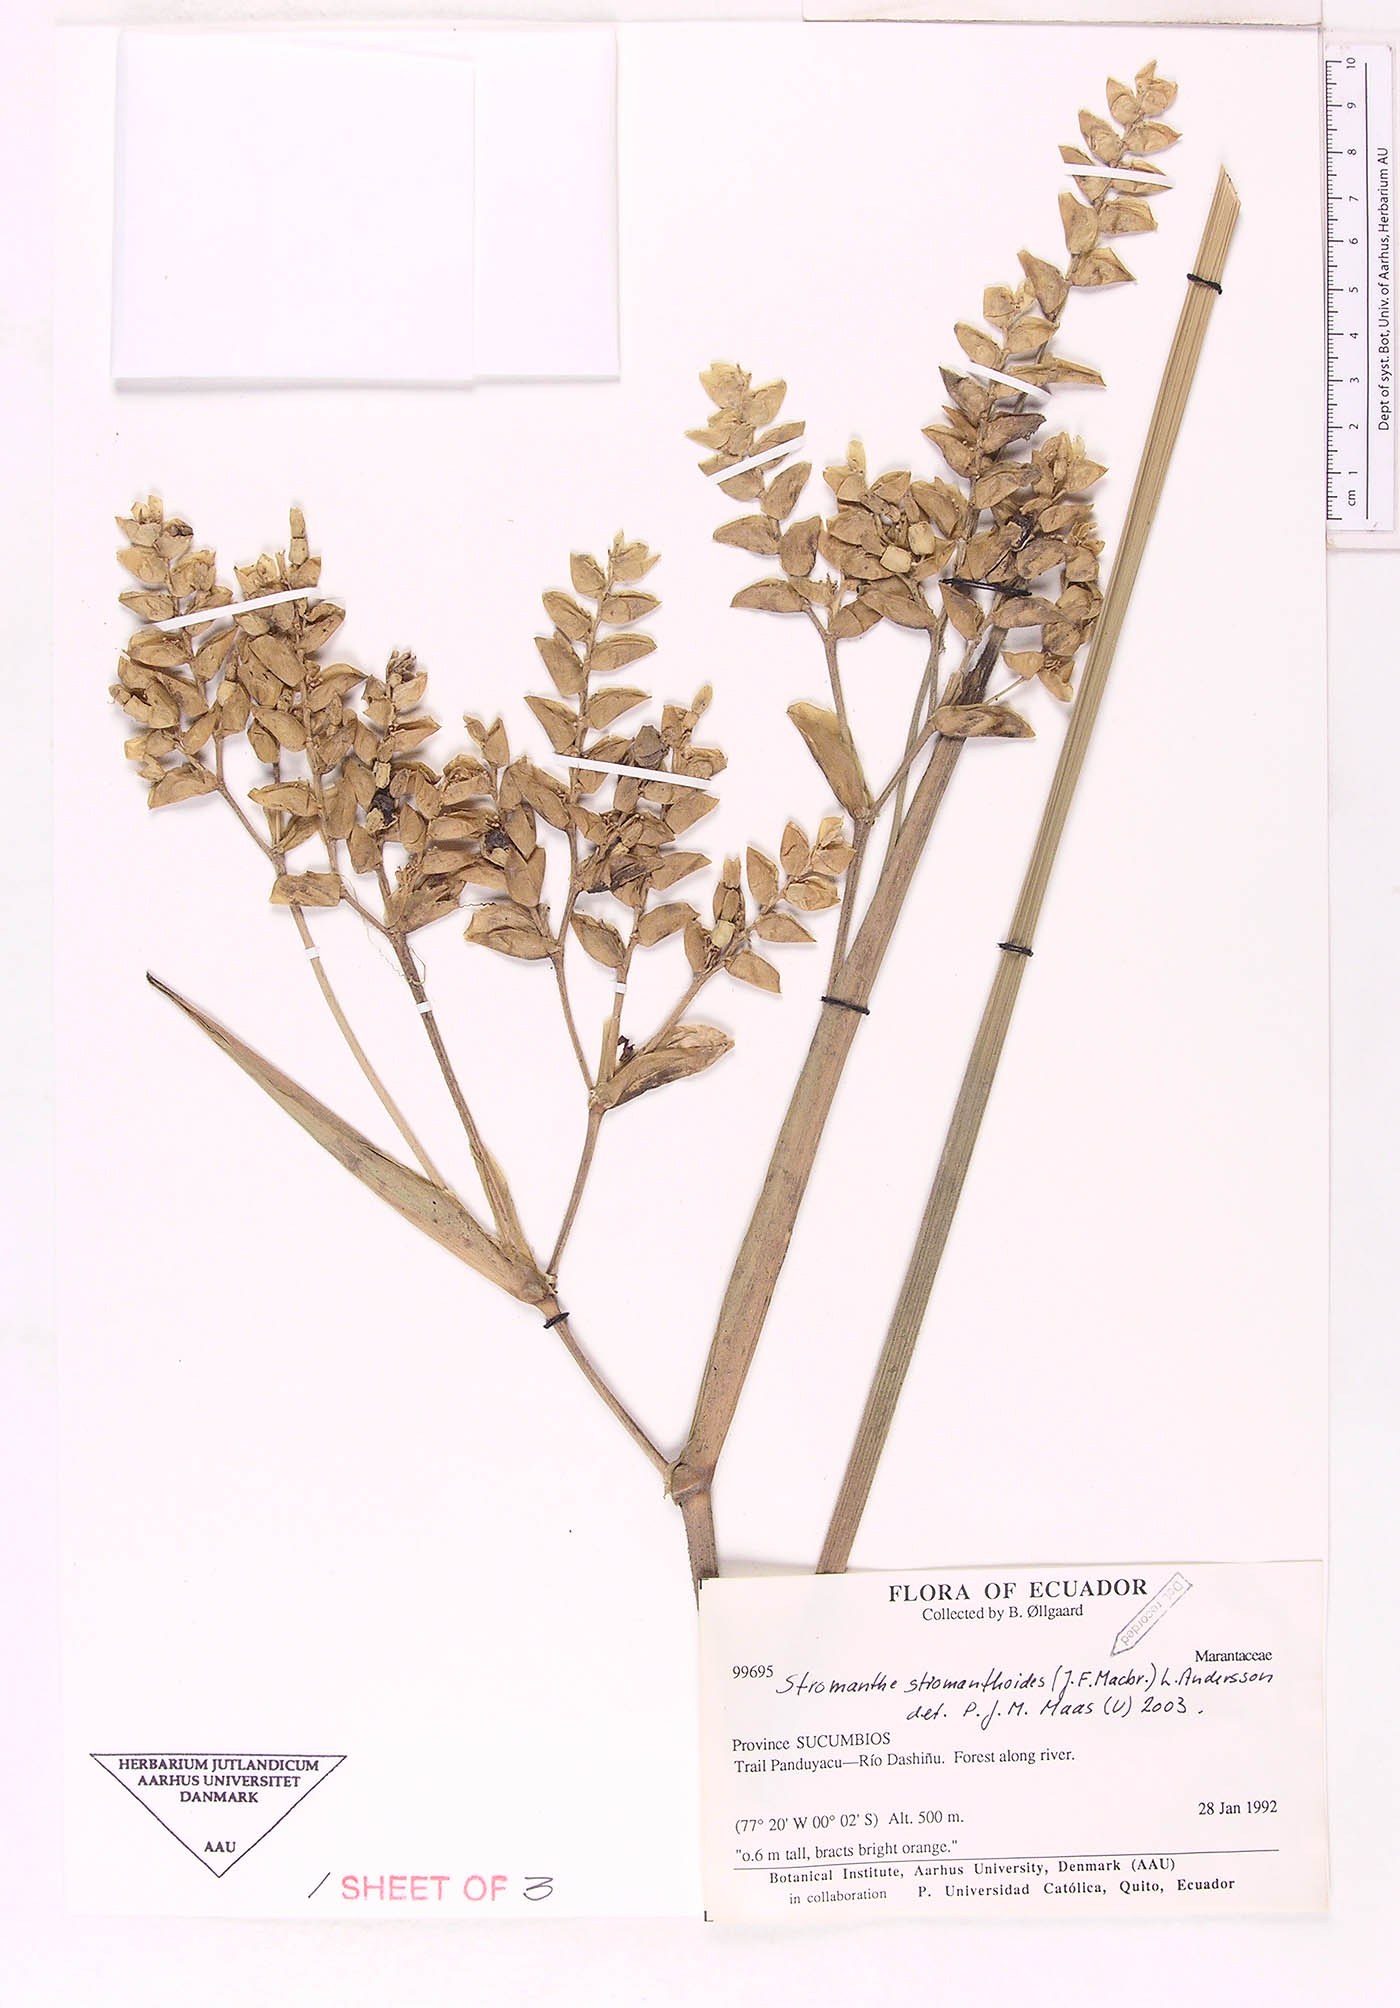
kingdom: Plantae
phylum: Tracheophyta
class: Liliopsida
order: Zingiberales
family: Marantaceae
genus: Stromanthe
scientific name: Stromanthe stromanthoides
